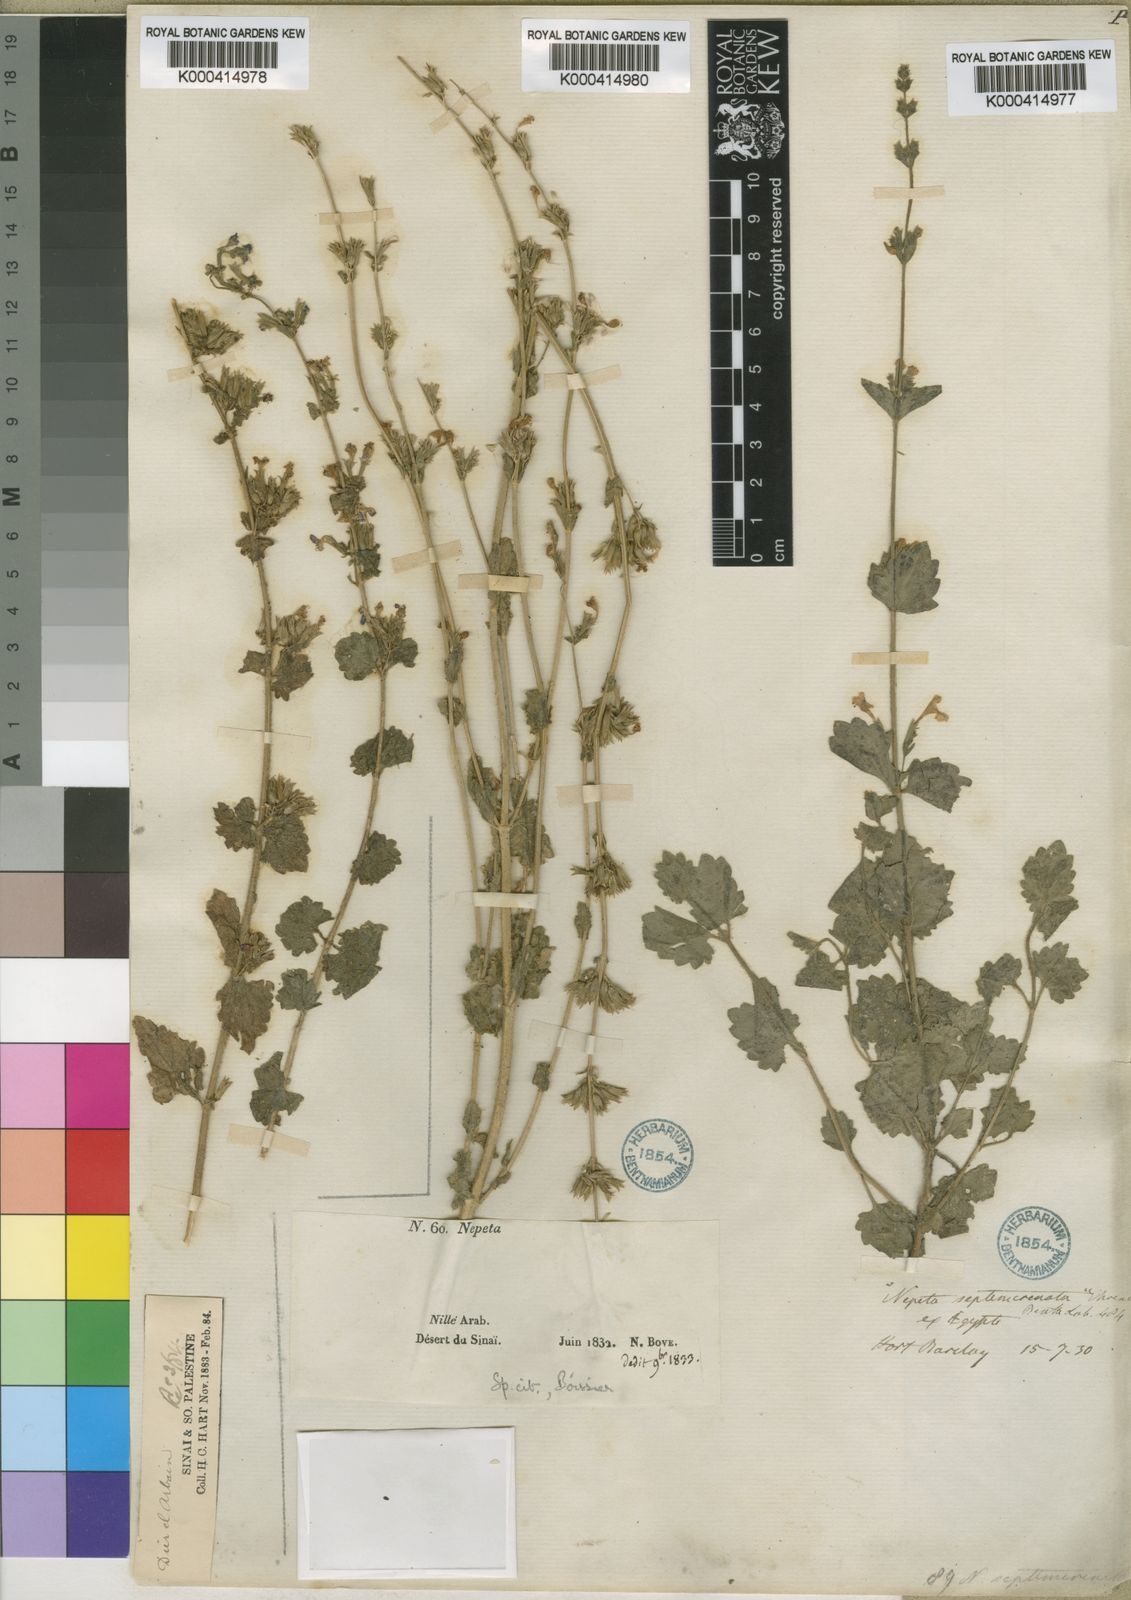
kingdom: Plantae
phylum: Tracheophyta
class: Magnoliopsida
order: Lamiales
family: Lamiaceae
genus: Nepeta
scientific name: Nepeta septemcrenata
